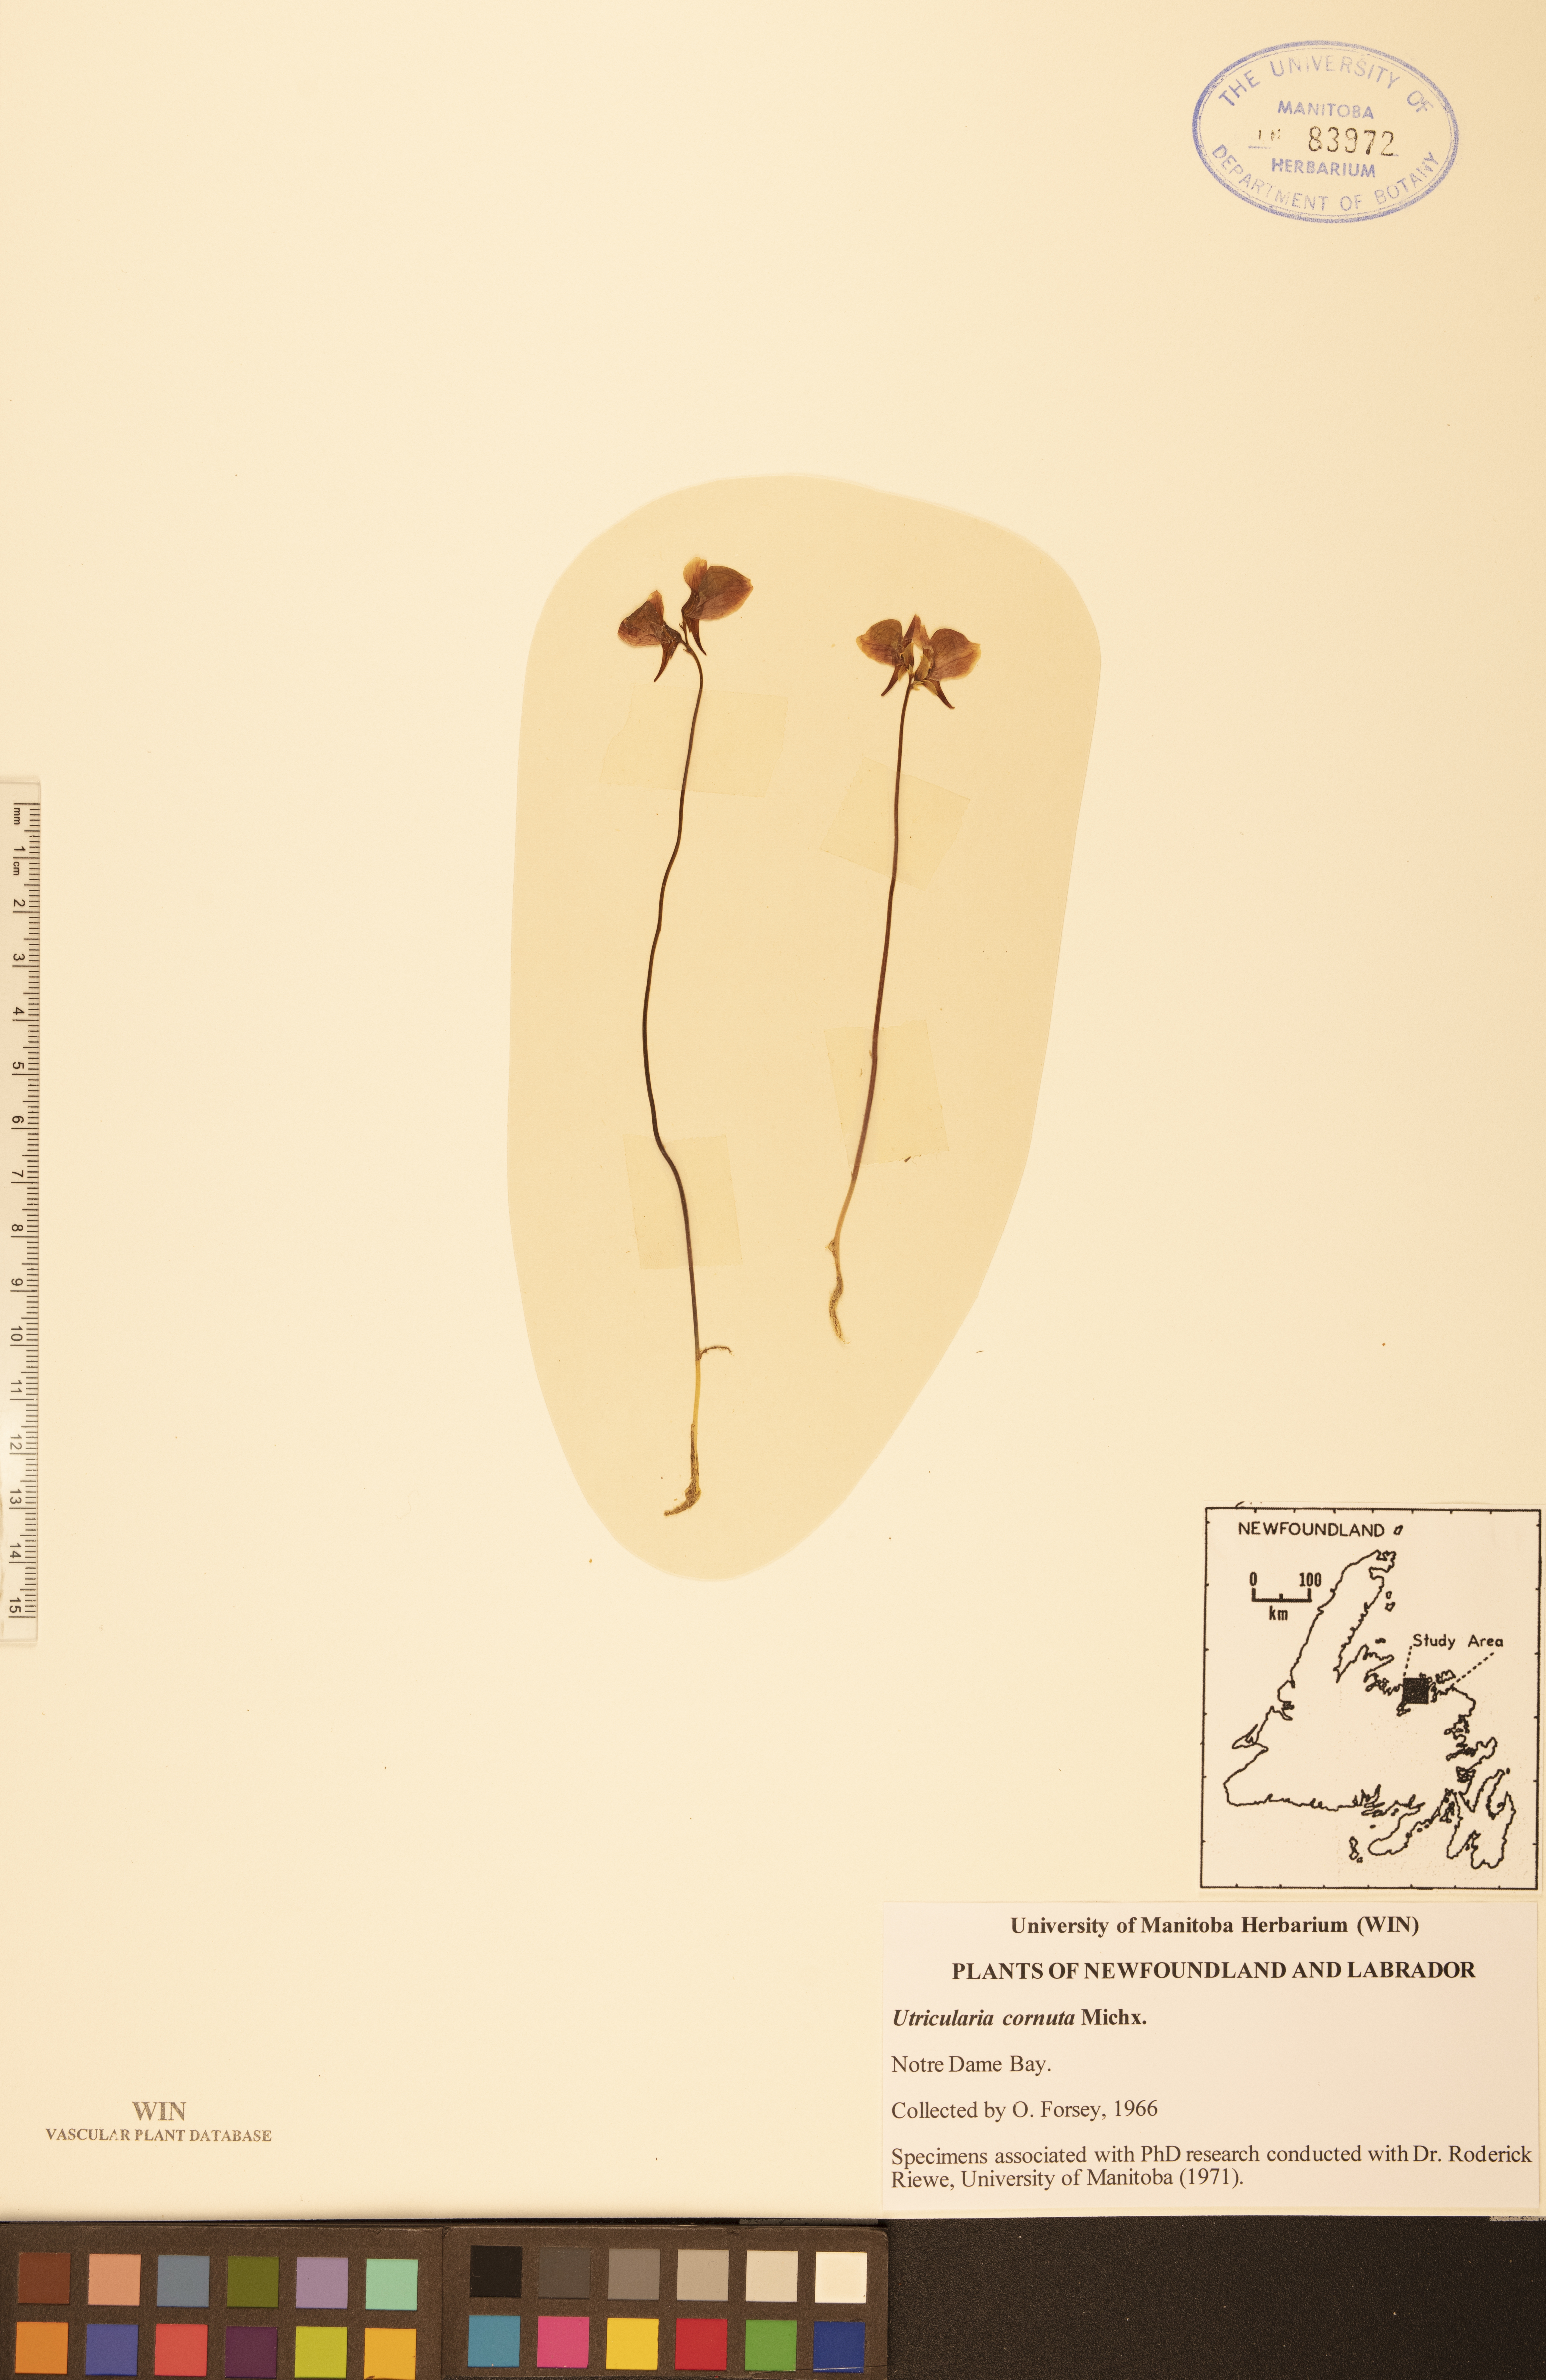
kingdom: Plantae
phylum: Tracheophyta
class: Magnoliopsida
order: Lamiales
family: Lentibulariaceae
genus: Utricularia
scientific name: Utricularia cornuta
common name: Horned bladderwort
